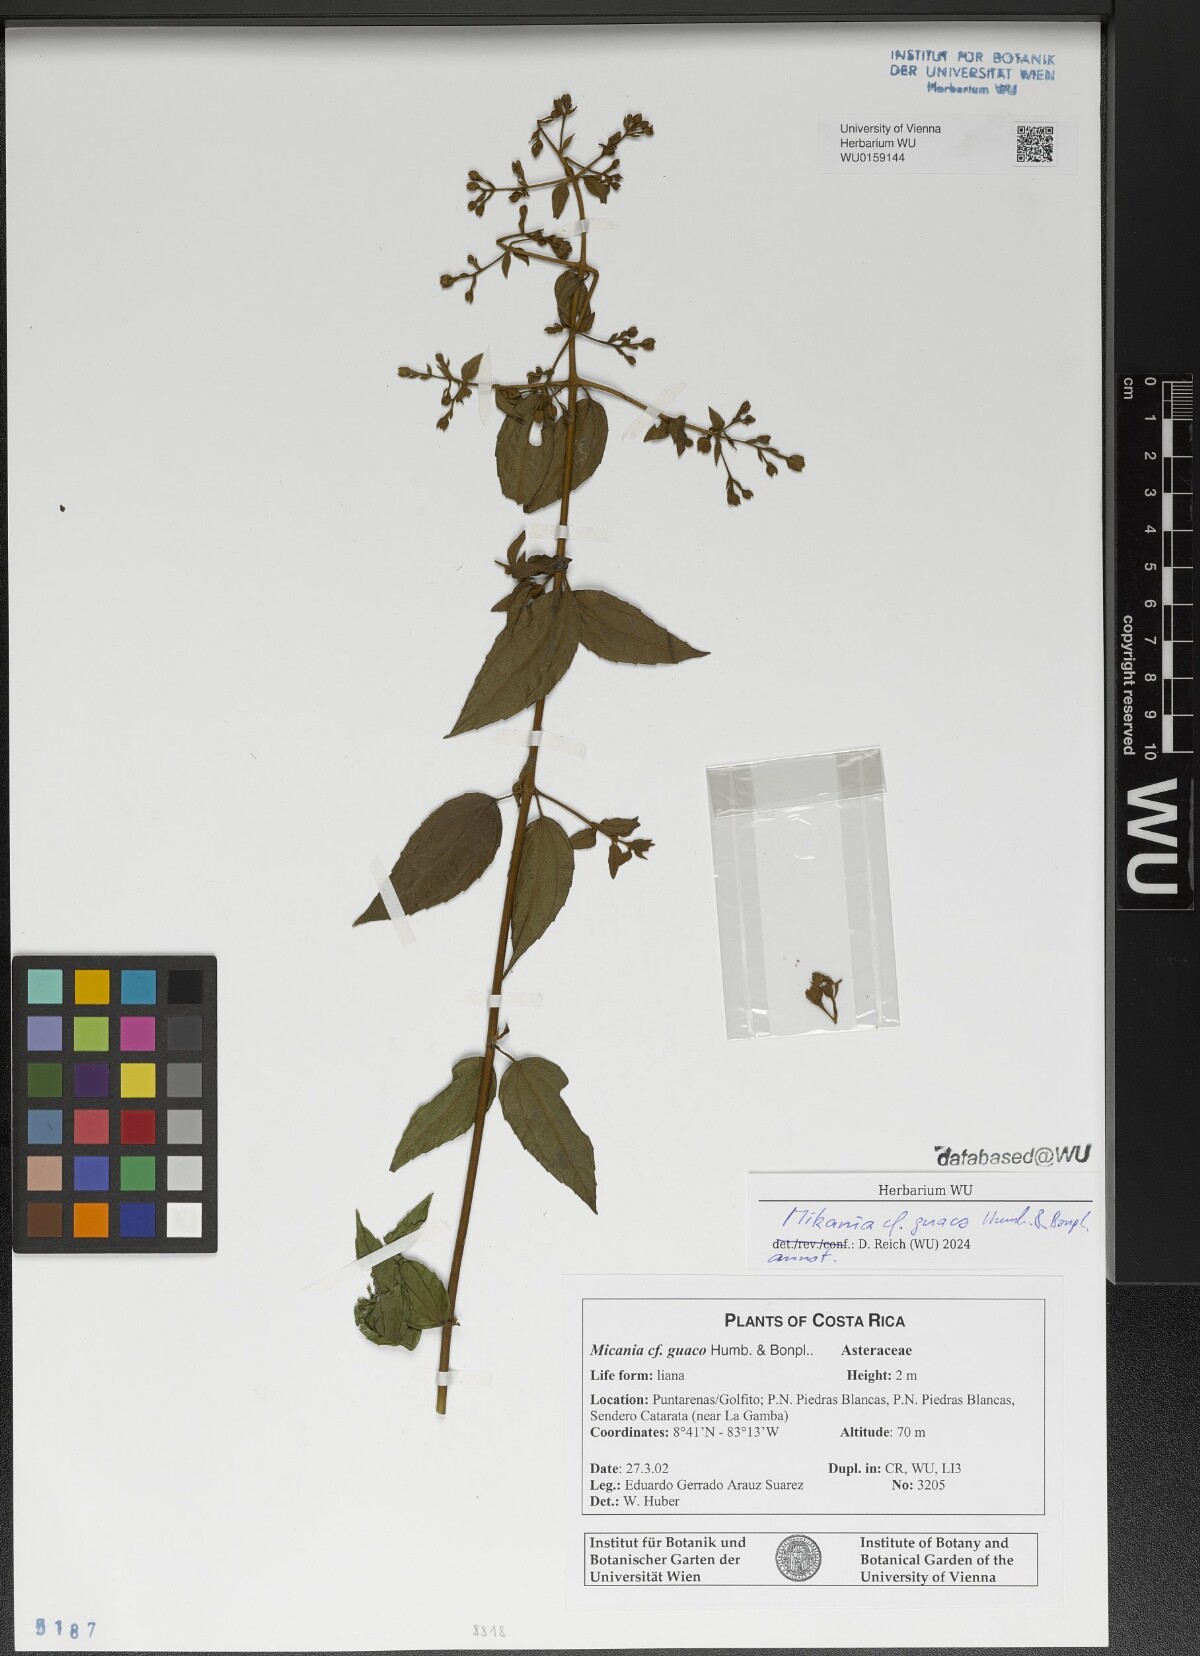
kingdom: Plantae
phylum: Tracheophyta
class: Magnoliopsida
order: Asterales
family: Asteraceae
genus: Mikania
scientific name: Mikania guaco
